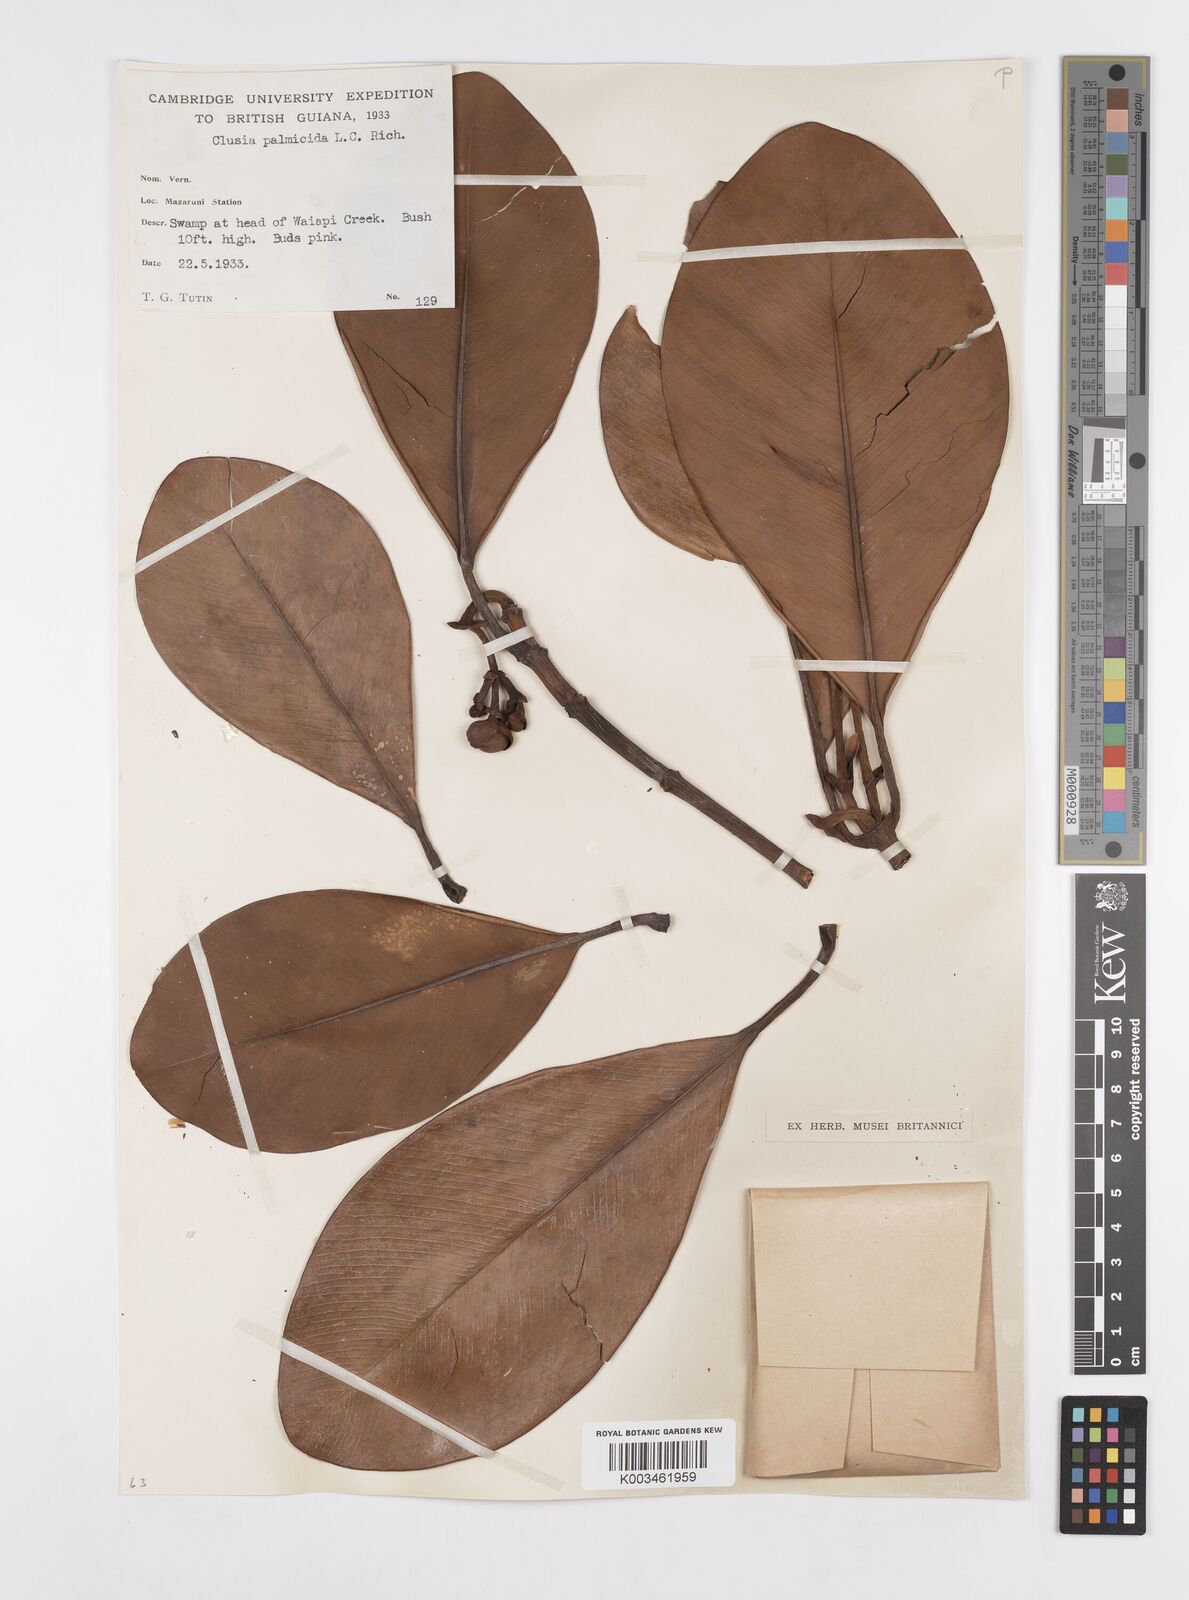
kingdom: Plantae
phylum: Tracheophyta
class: Magnoliopsida
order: Malpighiales
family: Clusiaceae
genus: Clusia
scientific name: Clusia palmicida
